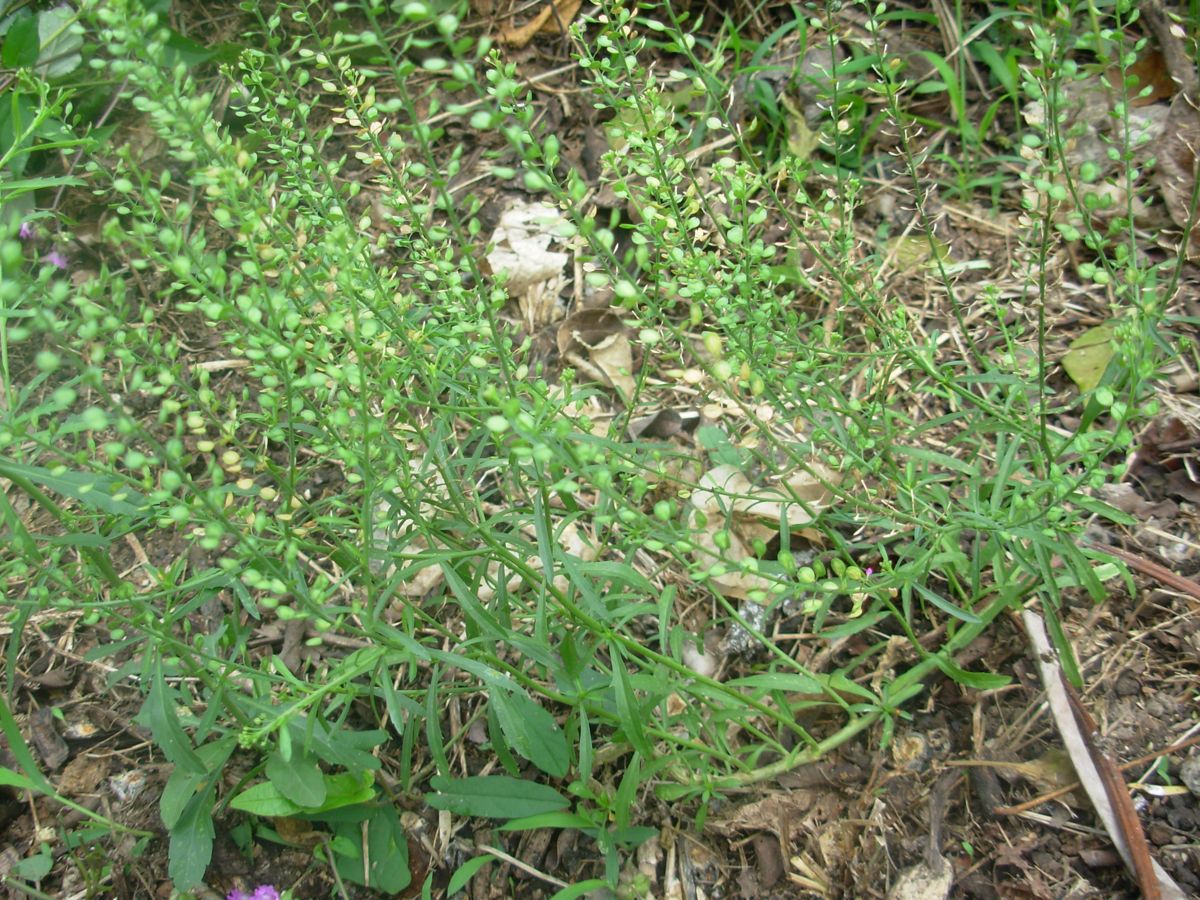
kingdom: Plantae
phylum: Tracheophyta
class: Magnoliopsida
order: Brassicales
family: Brassicaceae
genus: Lepidium
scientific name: Lepidium virginicum
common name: Least pepperwort
